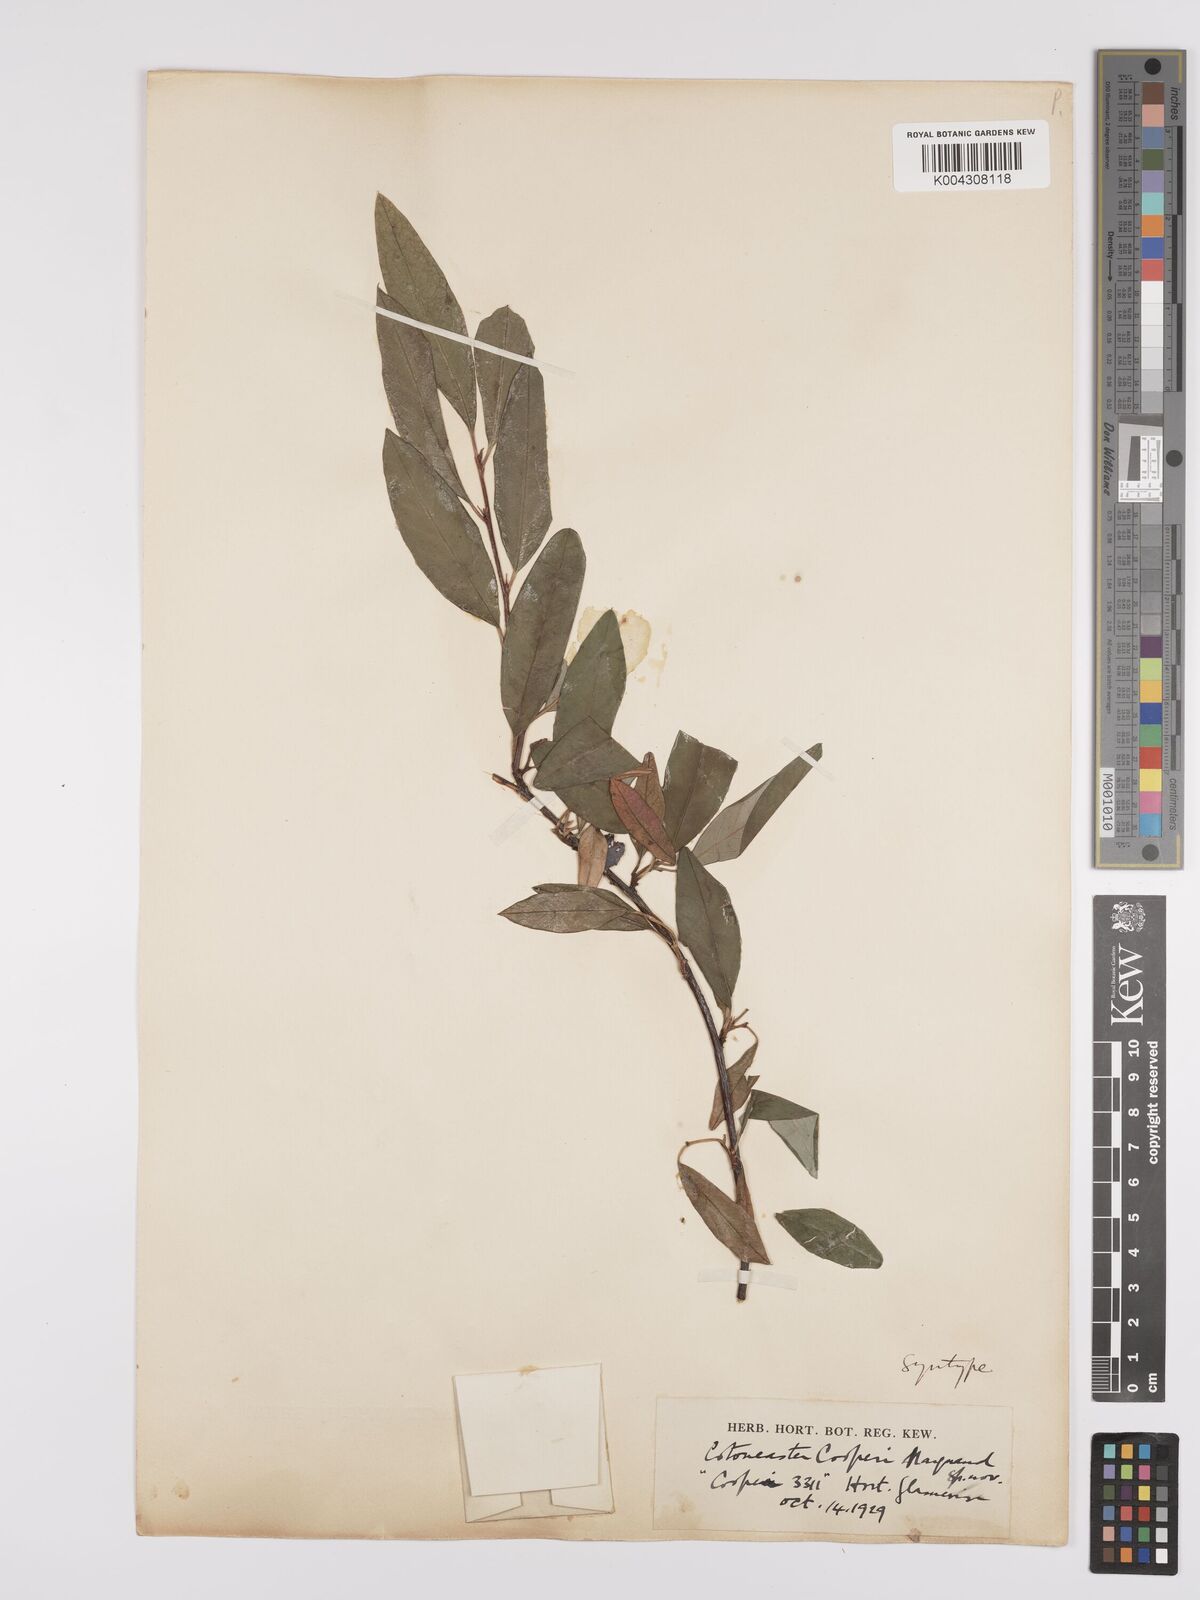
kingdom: Plantae
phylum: Tracheophyta
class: Magnoliopsida
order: Rosales
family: Rosaceae
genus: Cotoneaster
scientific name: Cotoneaster cooperi
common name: Cooper's cotoneaster
